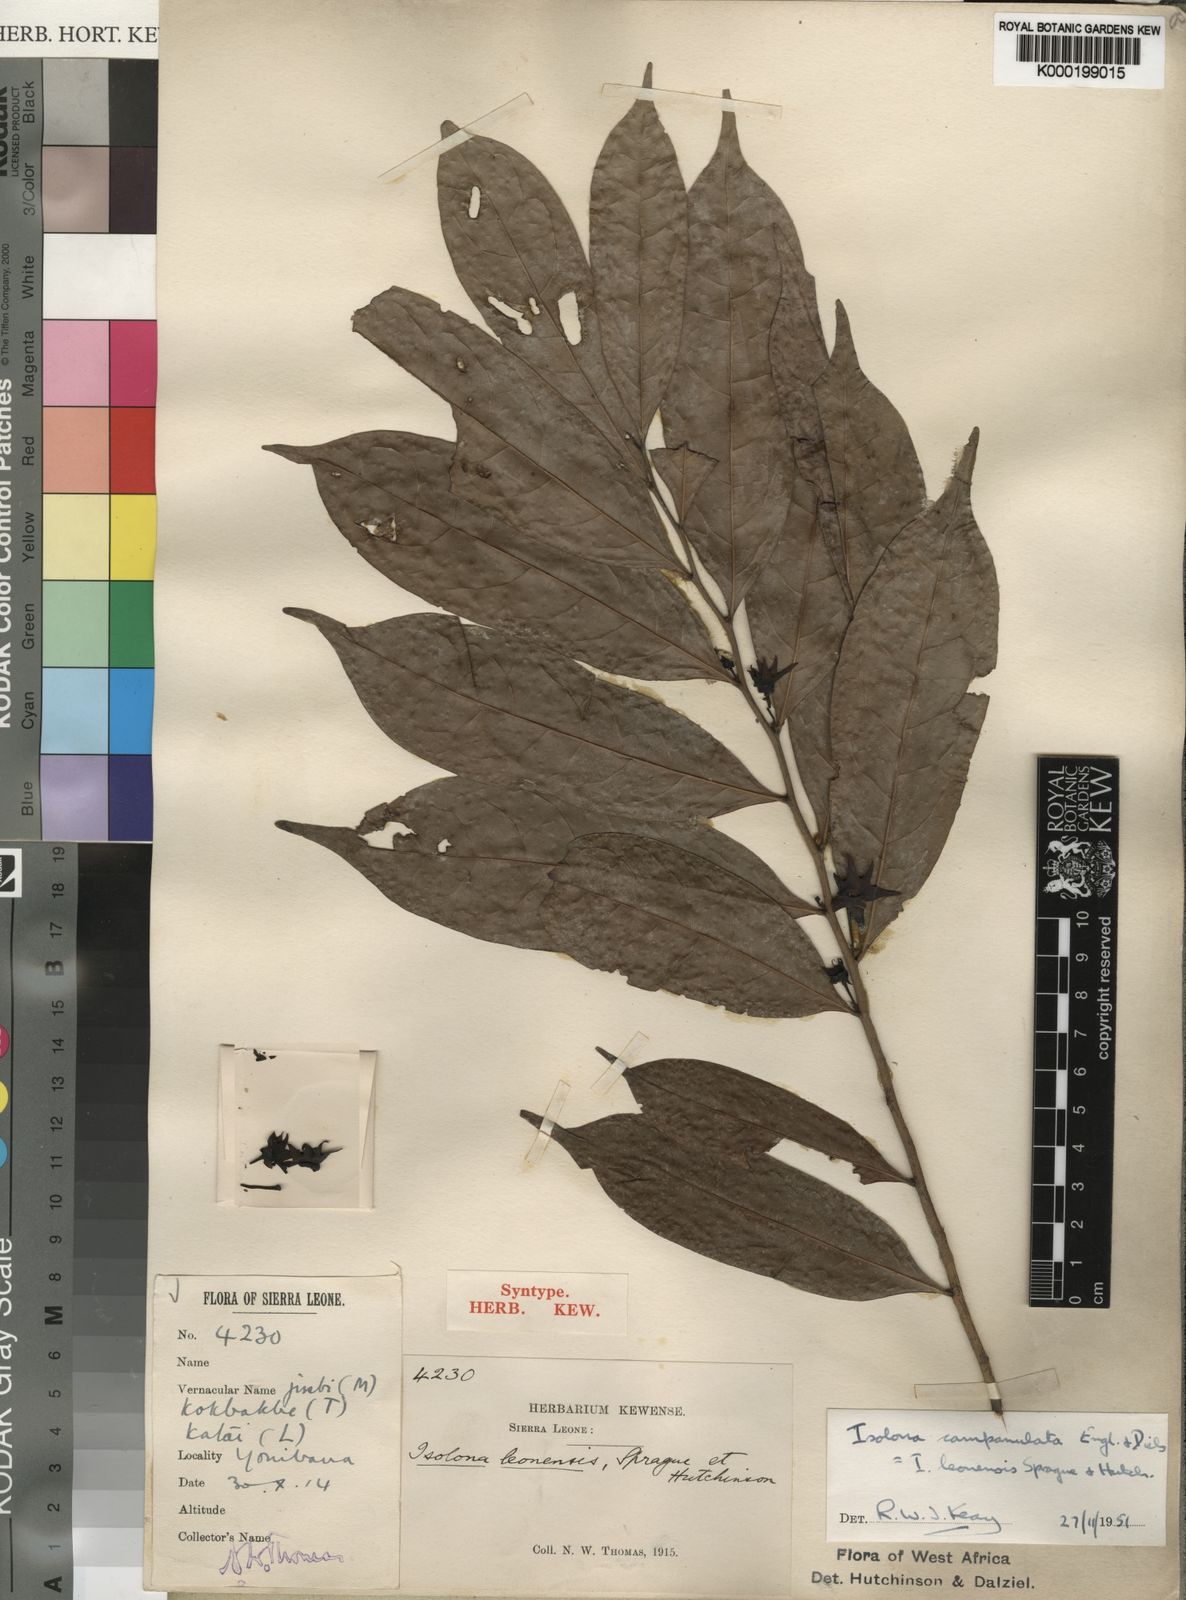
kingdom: Plantae
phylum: Tracheophyta
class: Magnoliopsida
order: Magnoliales
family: Annonaceae
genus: Isolona
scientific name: Isolona campanulata
